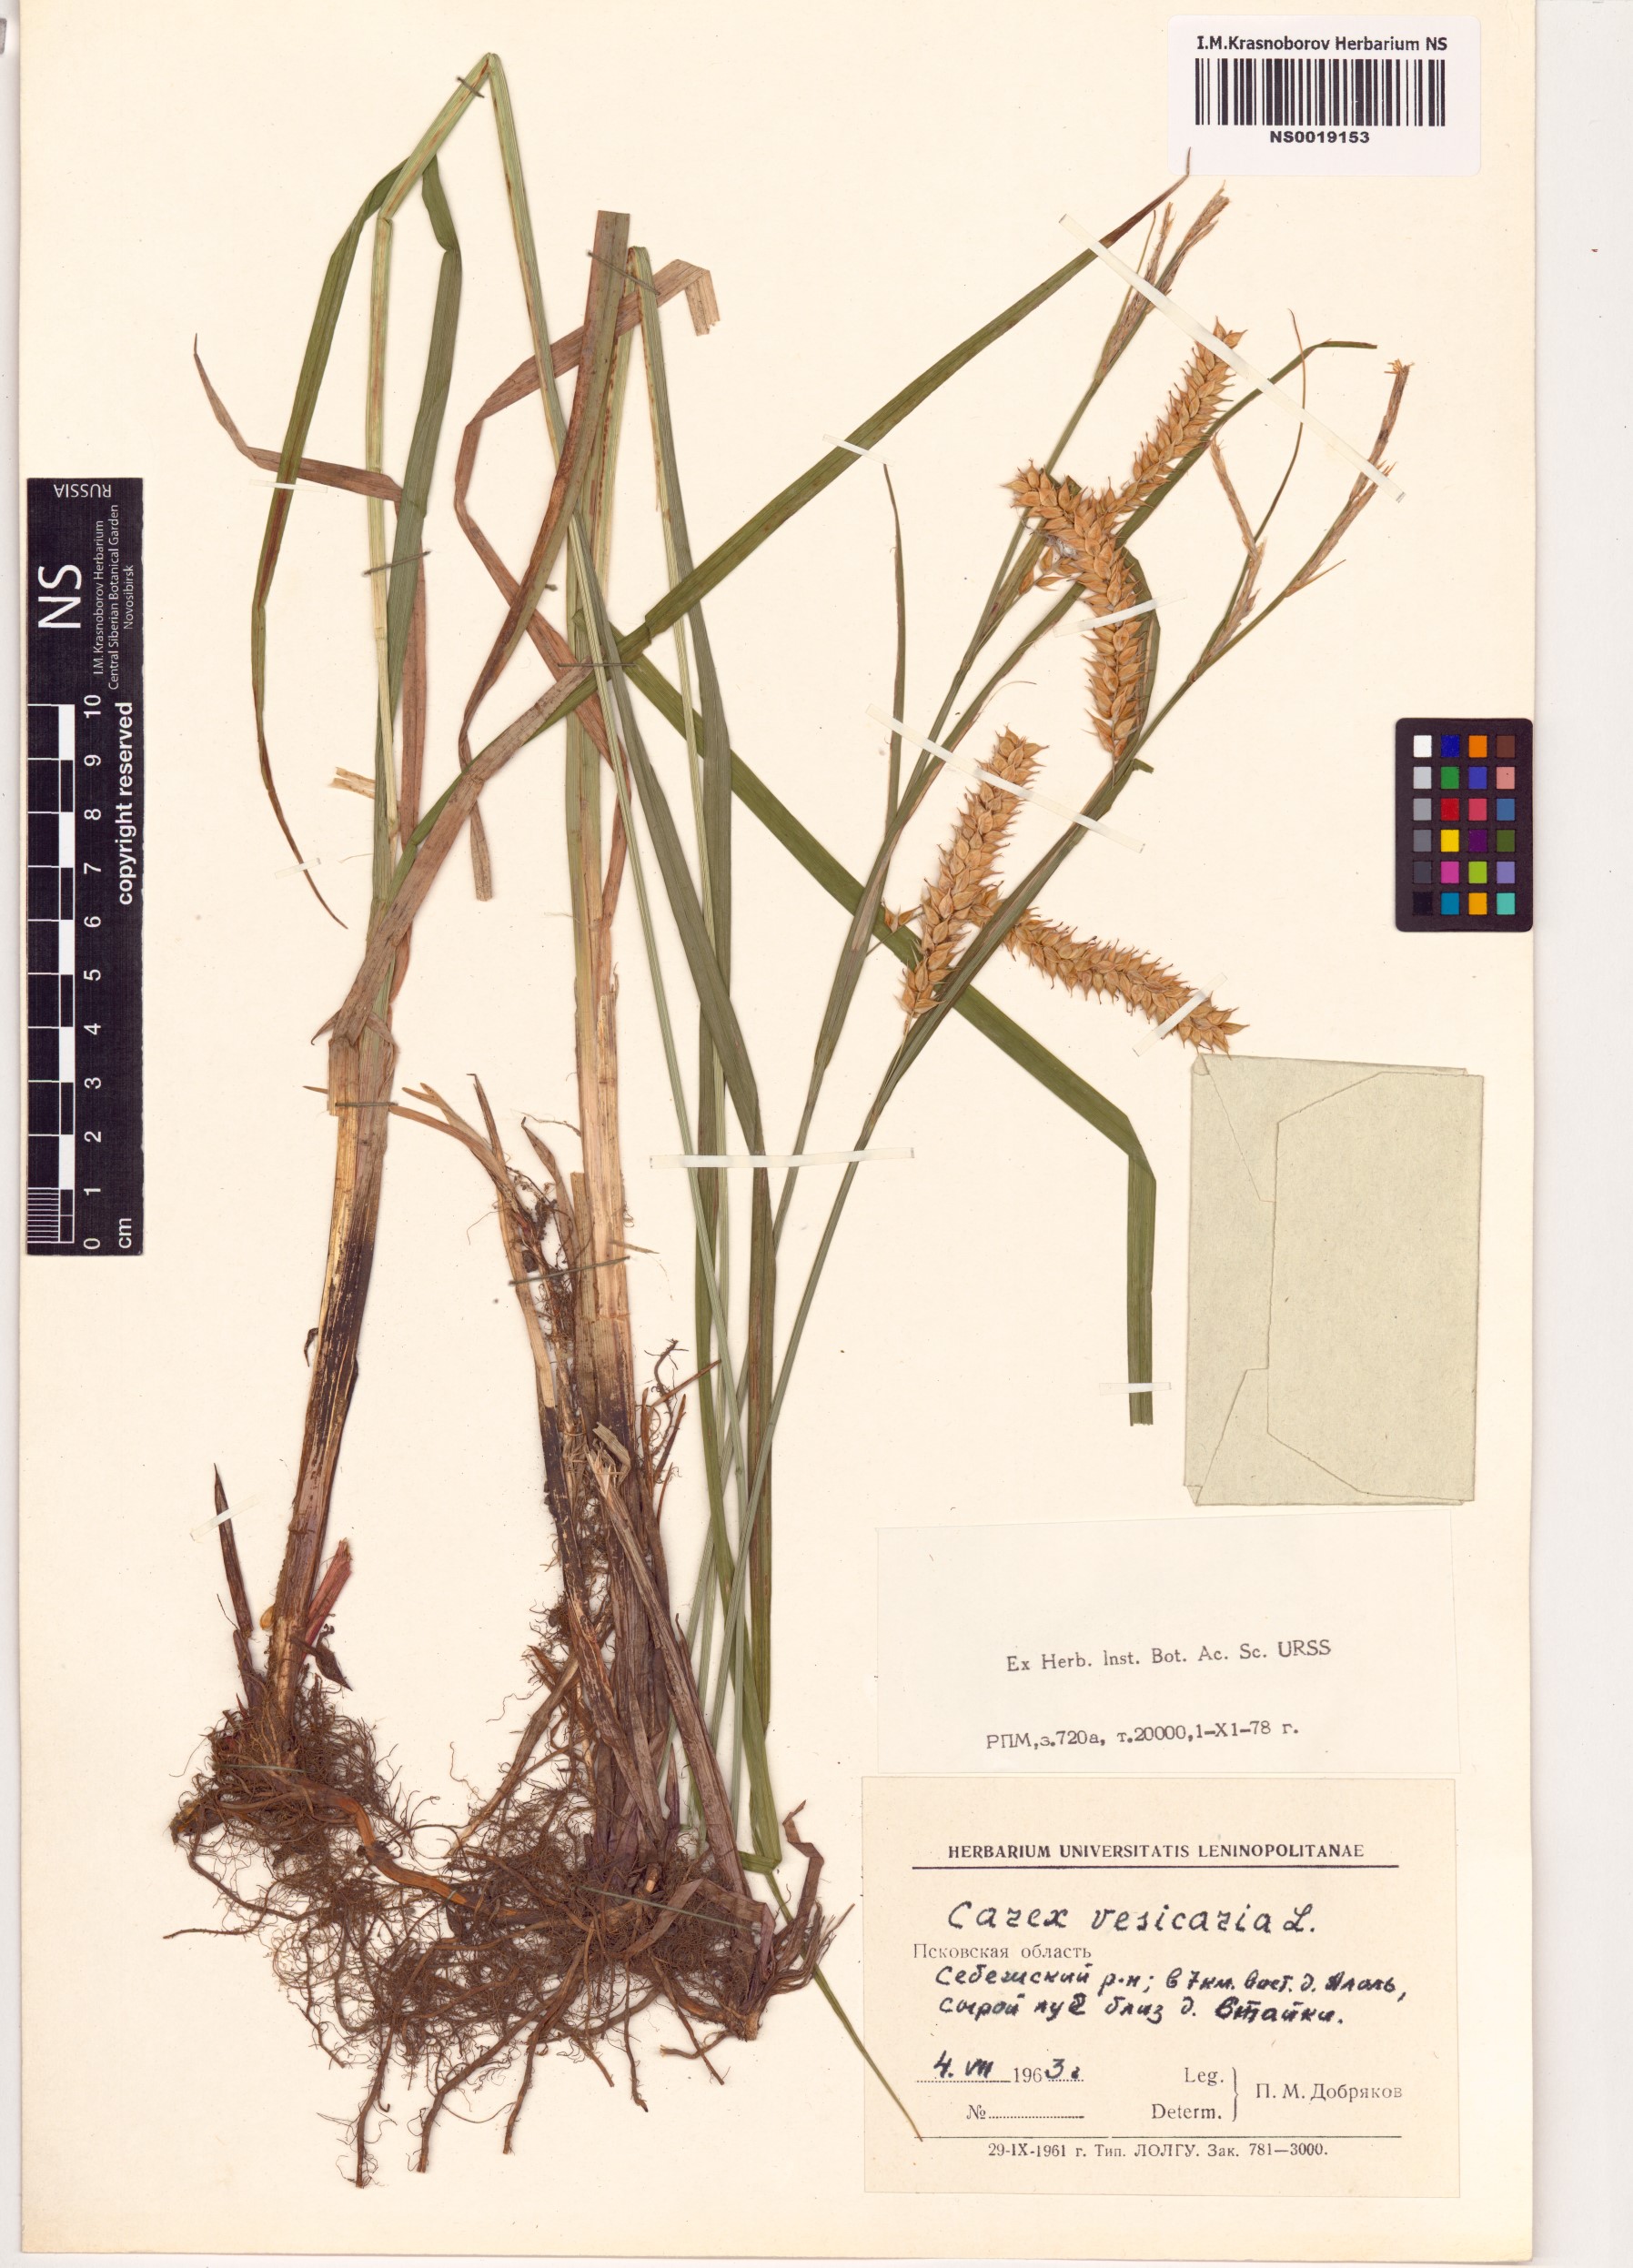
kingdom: Plantae
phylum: Tracheophyta
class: Liliopsida
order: Poales
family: Cyperaceae
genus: Carex
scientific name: Carex vesicaria
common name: Bladder-sedge
